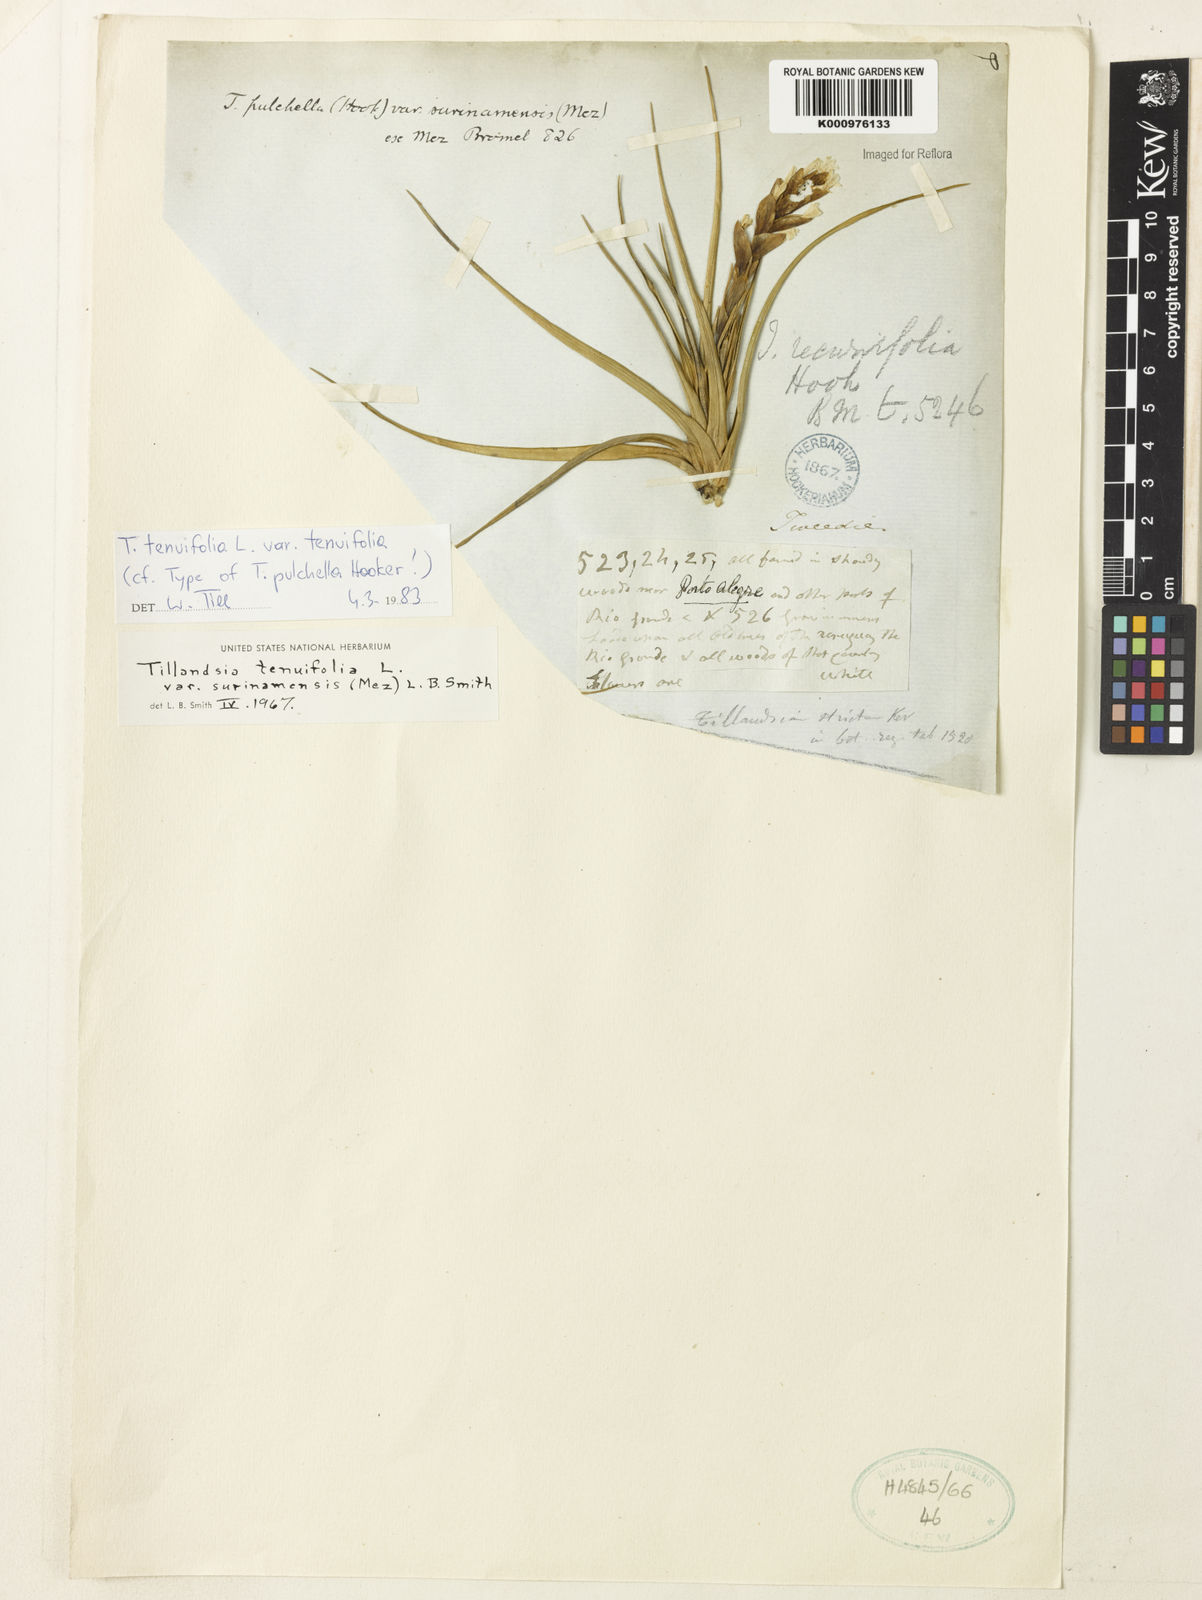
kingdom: Plantae
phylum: Tracheophyta
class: Liliopsida
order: Poales
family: Bromeliaceae
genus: Tillandsia
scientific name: Tillandsia tenuifolia
